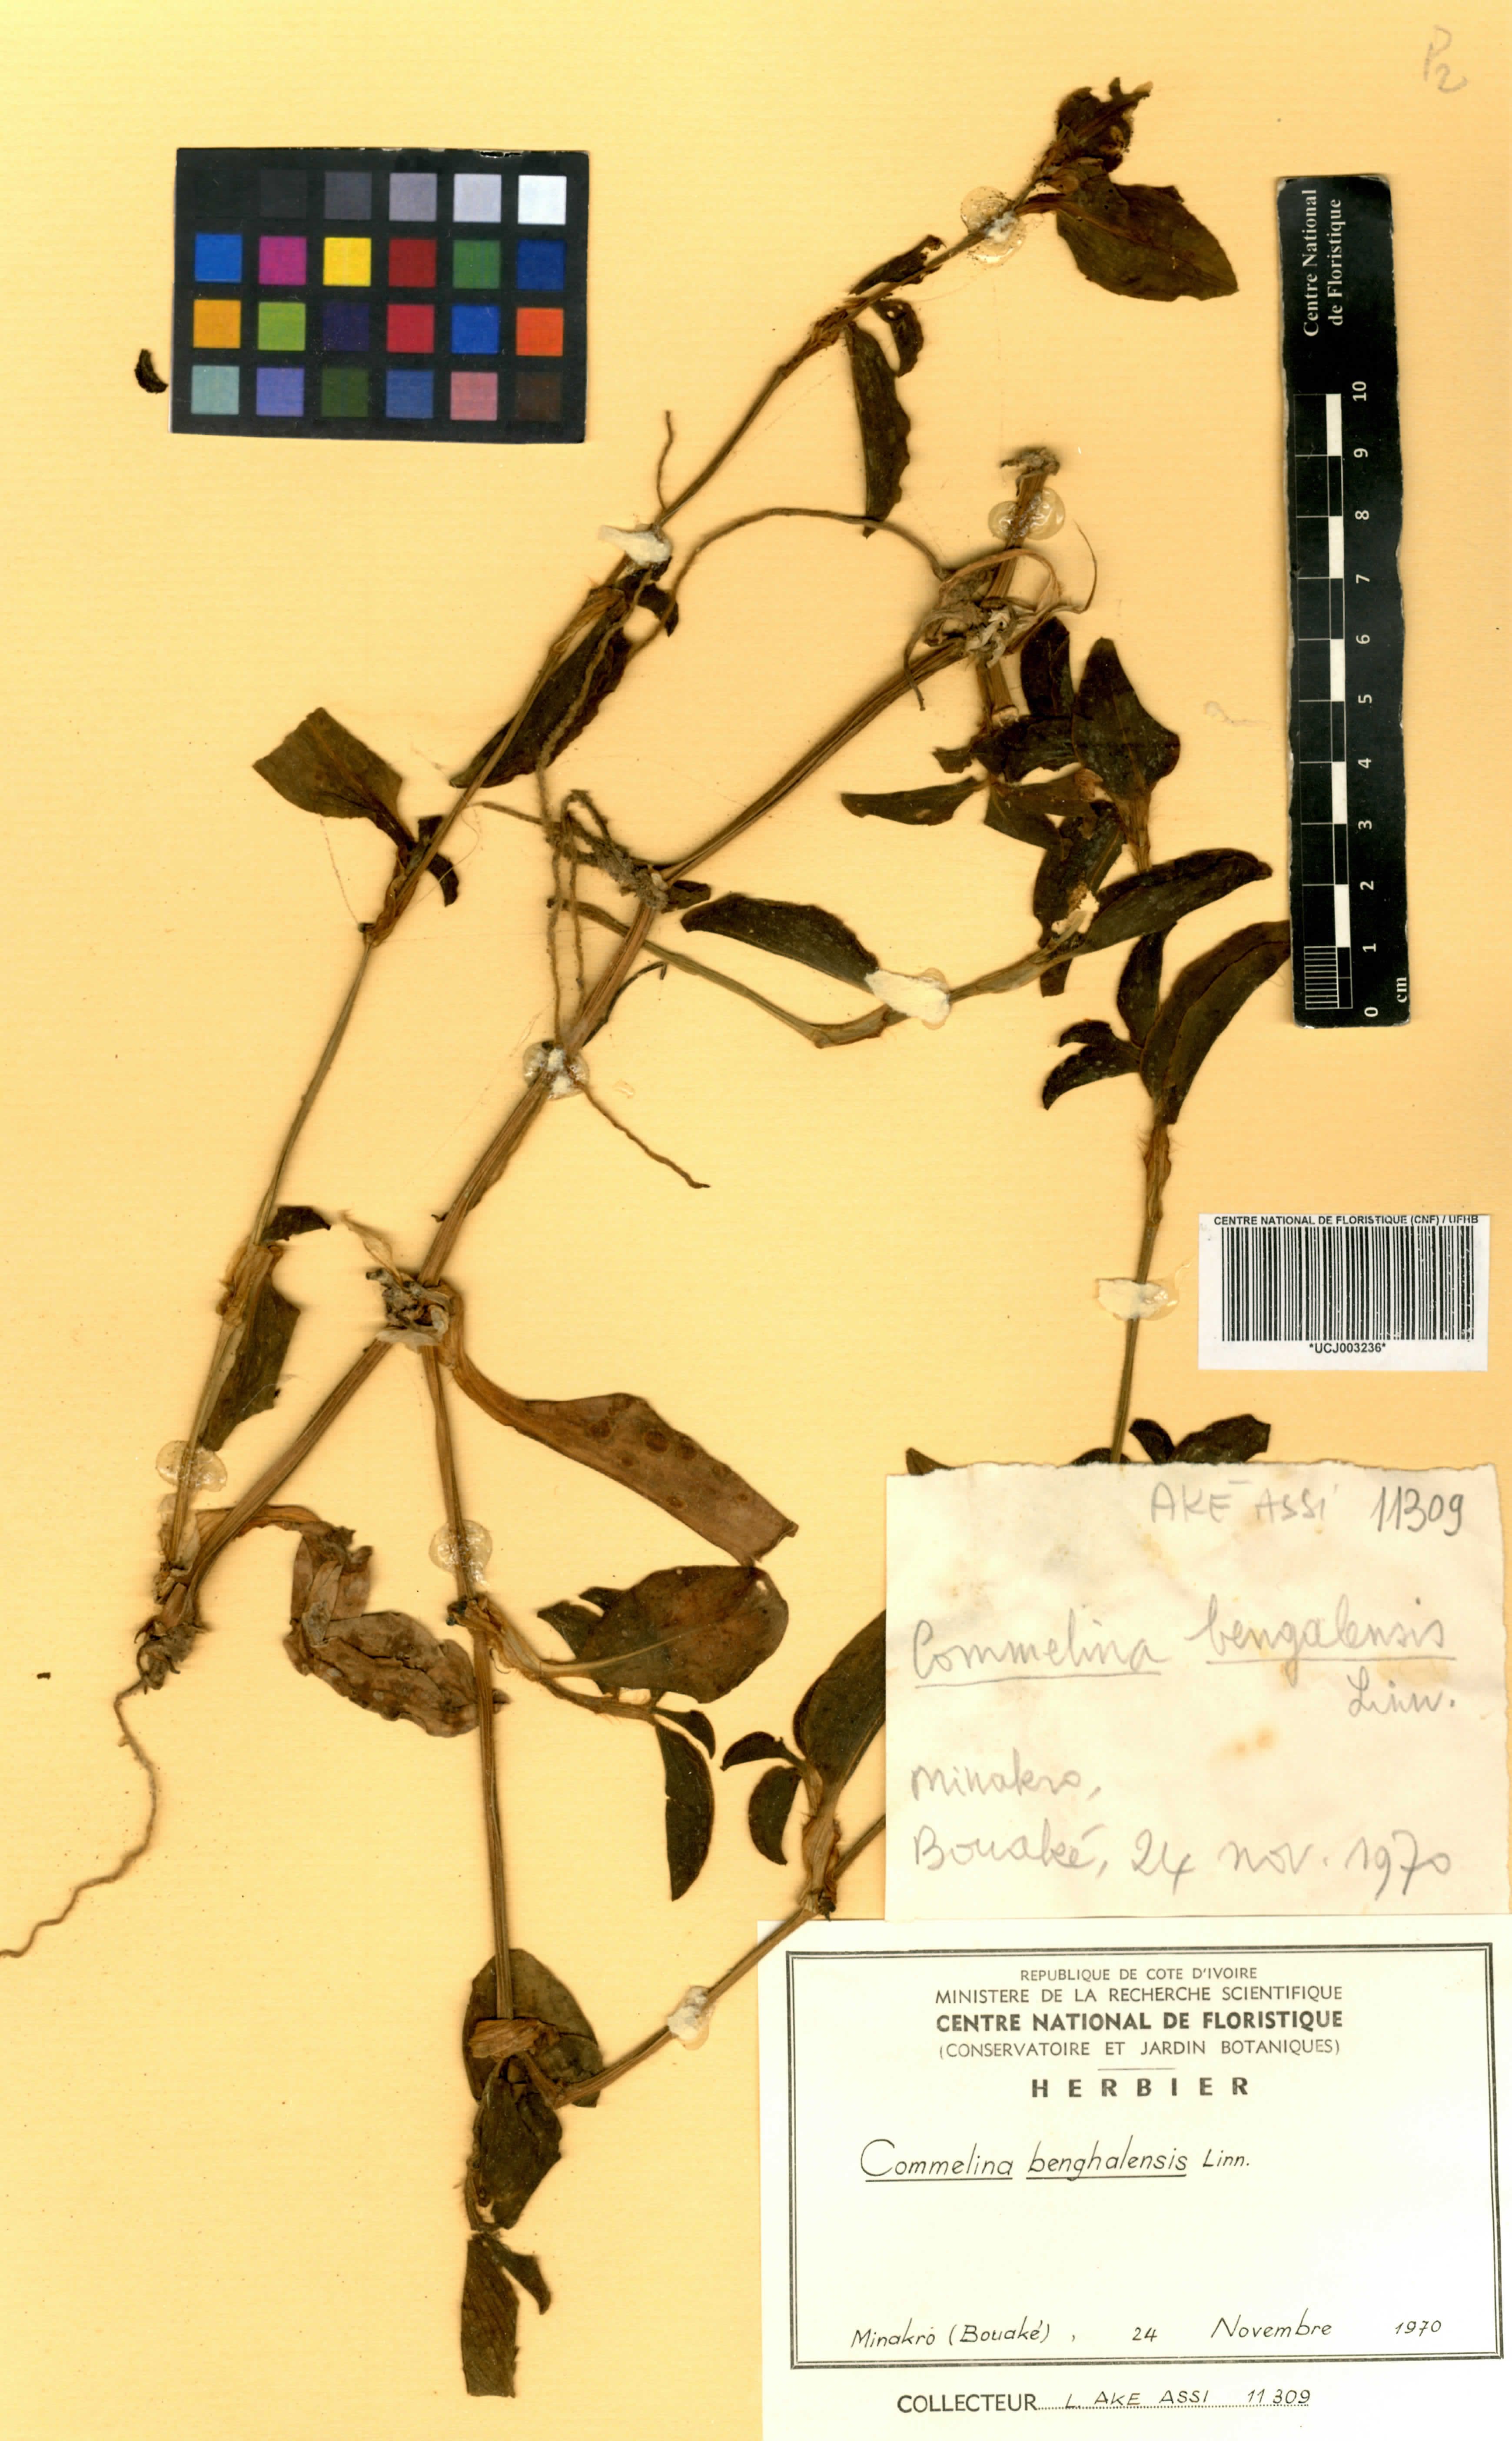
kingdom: Plantae
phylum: Tracheophyta
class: Liliopsida
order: Commelinales
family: Commelinaceae
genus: Commelina
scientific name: Commelina benghalensis
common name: Jio
